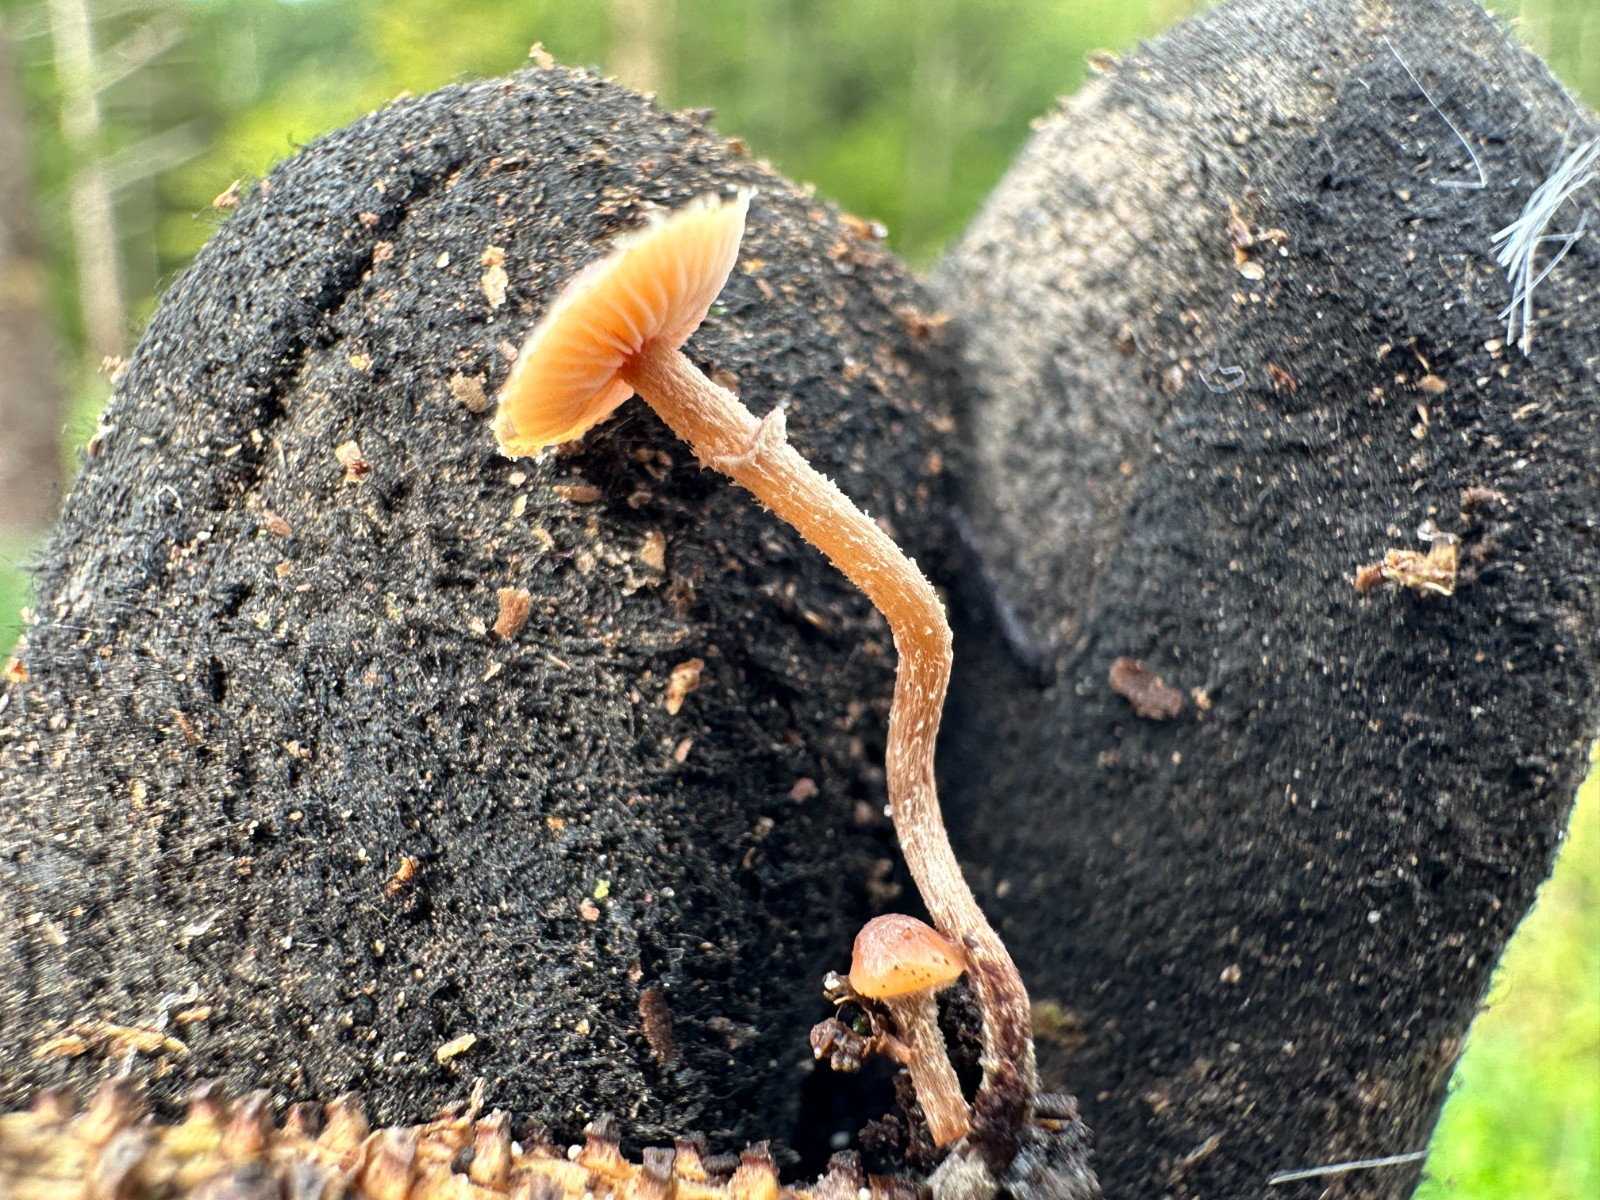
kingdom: Fungi
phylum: Basidiomycota
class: Agaricomycetes
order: Agaricales
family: Strophariaceae
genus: Deconica
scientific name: Deconica crobula
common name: træflis-stråhat
